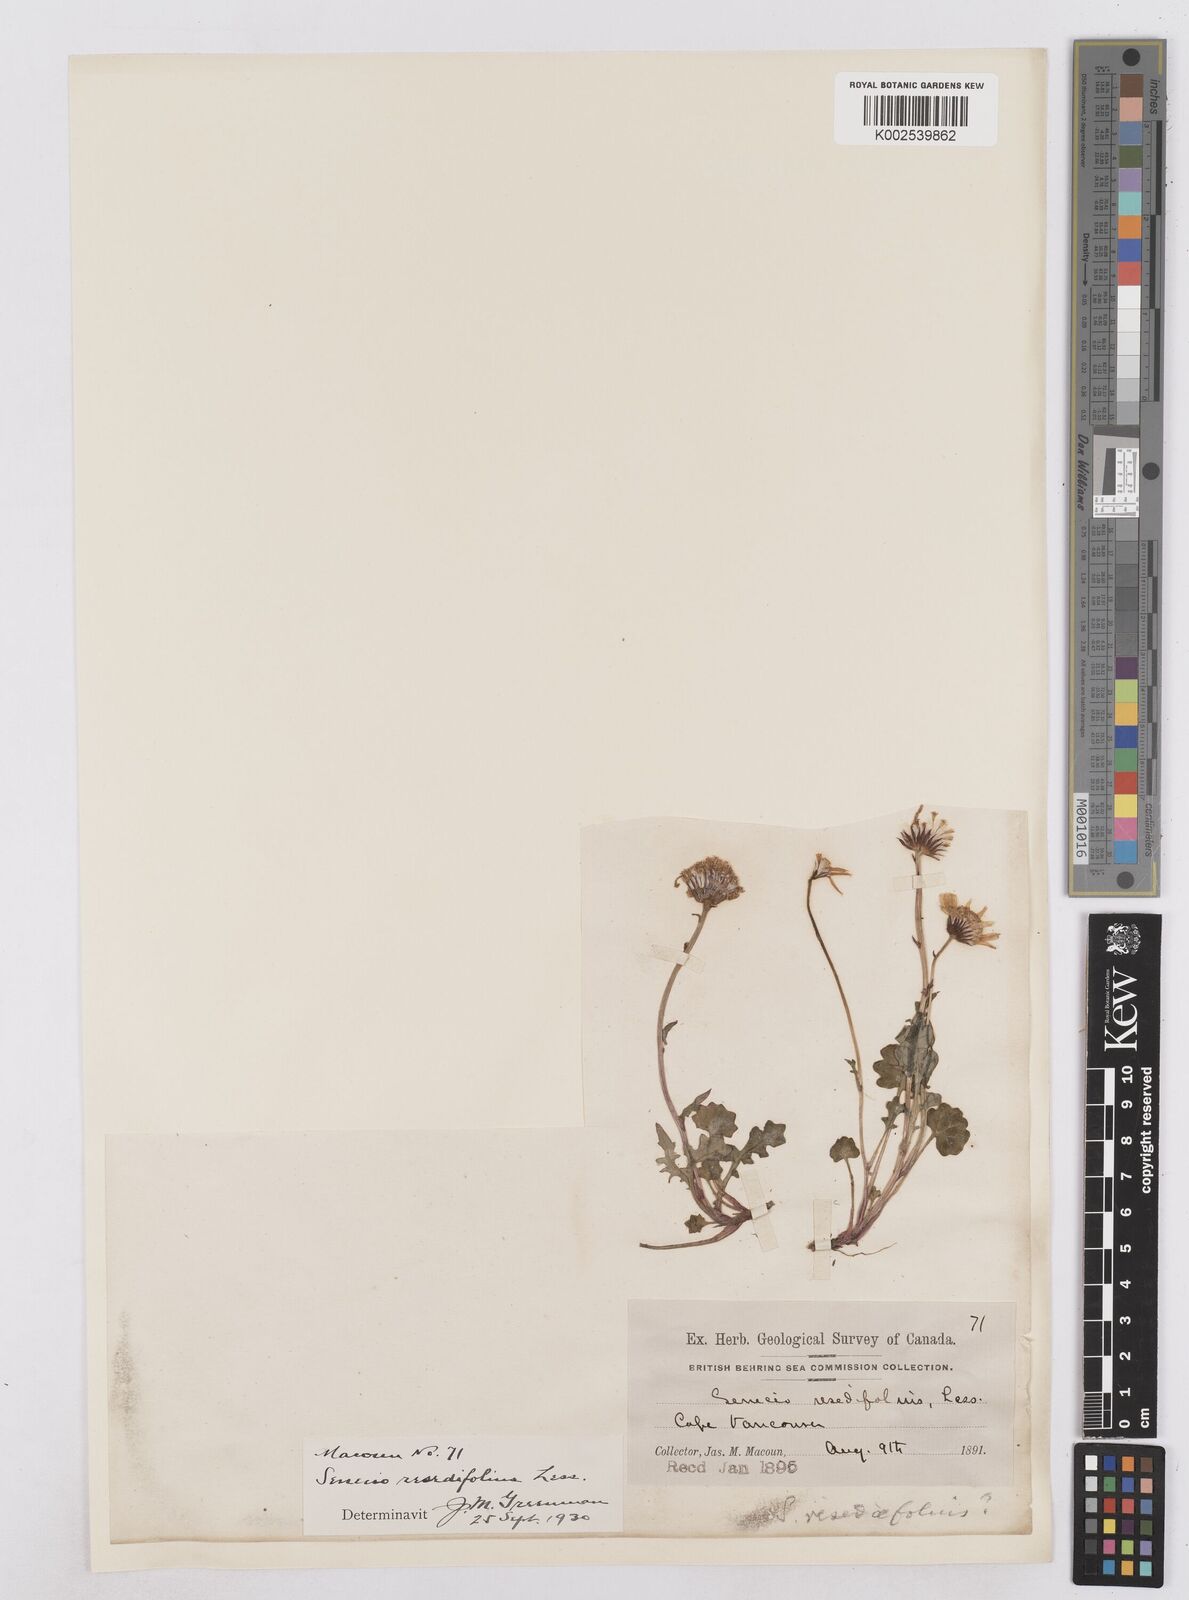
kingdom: Plantae
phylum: Tracheophyta
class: Magnoliopsida
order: Asterales
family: Asteraceae
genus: Packera
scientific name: Packera cymbalaria
